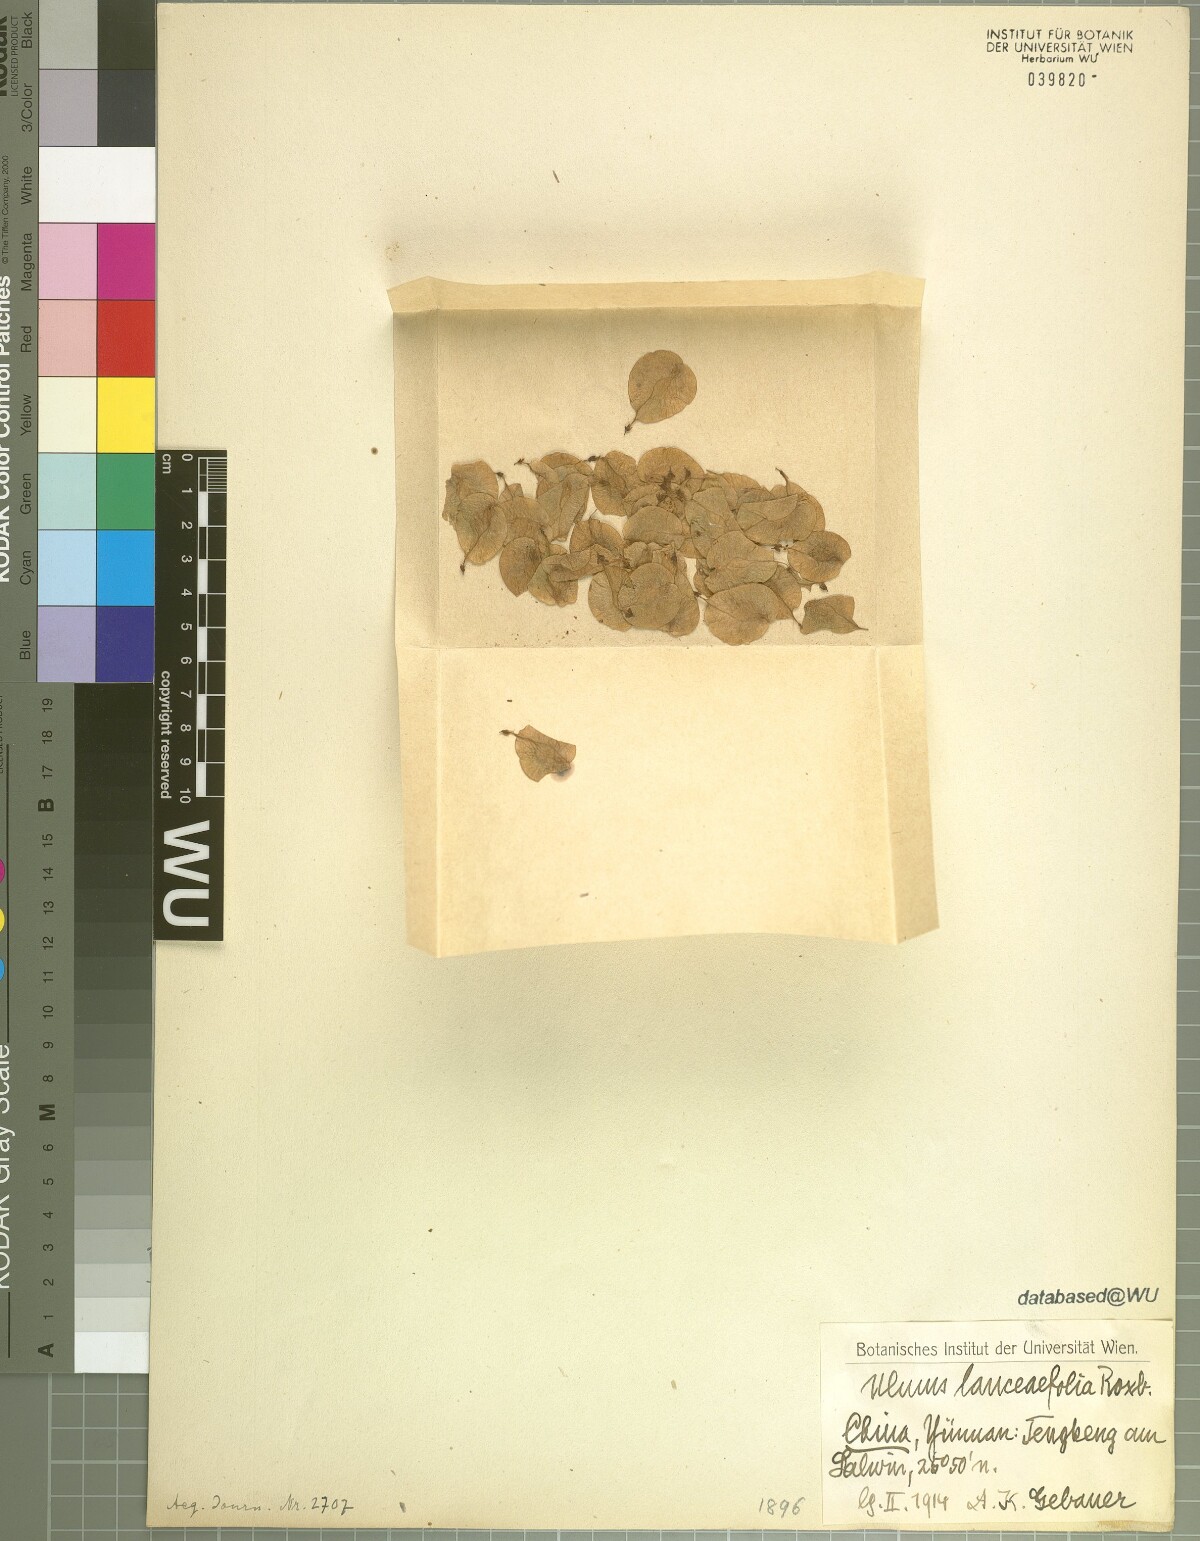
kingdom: Plantae
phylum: Tracheophyta
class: Magnoliopsida
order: Rosales
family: Ulmaceae
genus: Ulmus
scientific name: Ulmus lanceifolia
